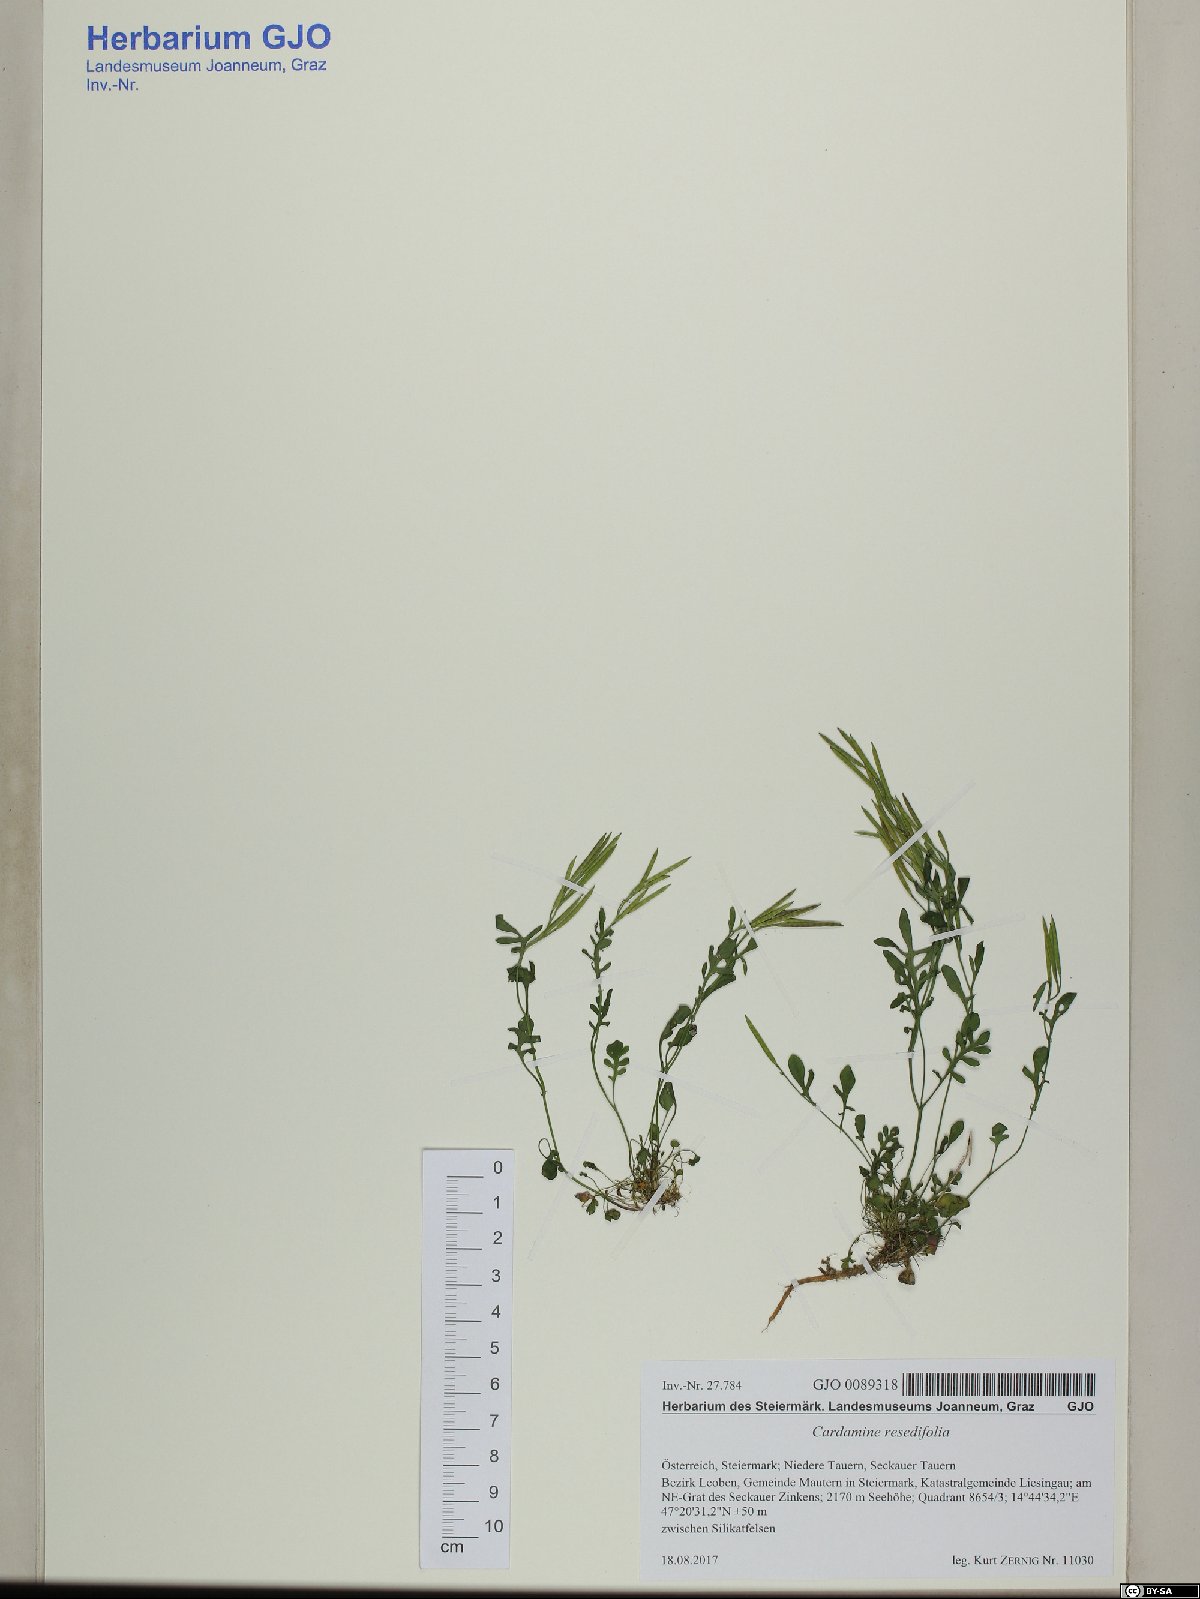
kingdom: Plantae
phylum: Tracheophyta
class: Magnoliopsida
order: Brassicales
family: Brassicaceae
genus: Cardamine
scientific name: Cardamine resedifolia
